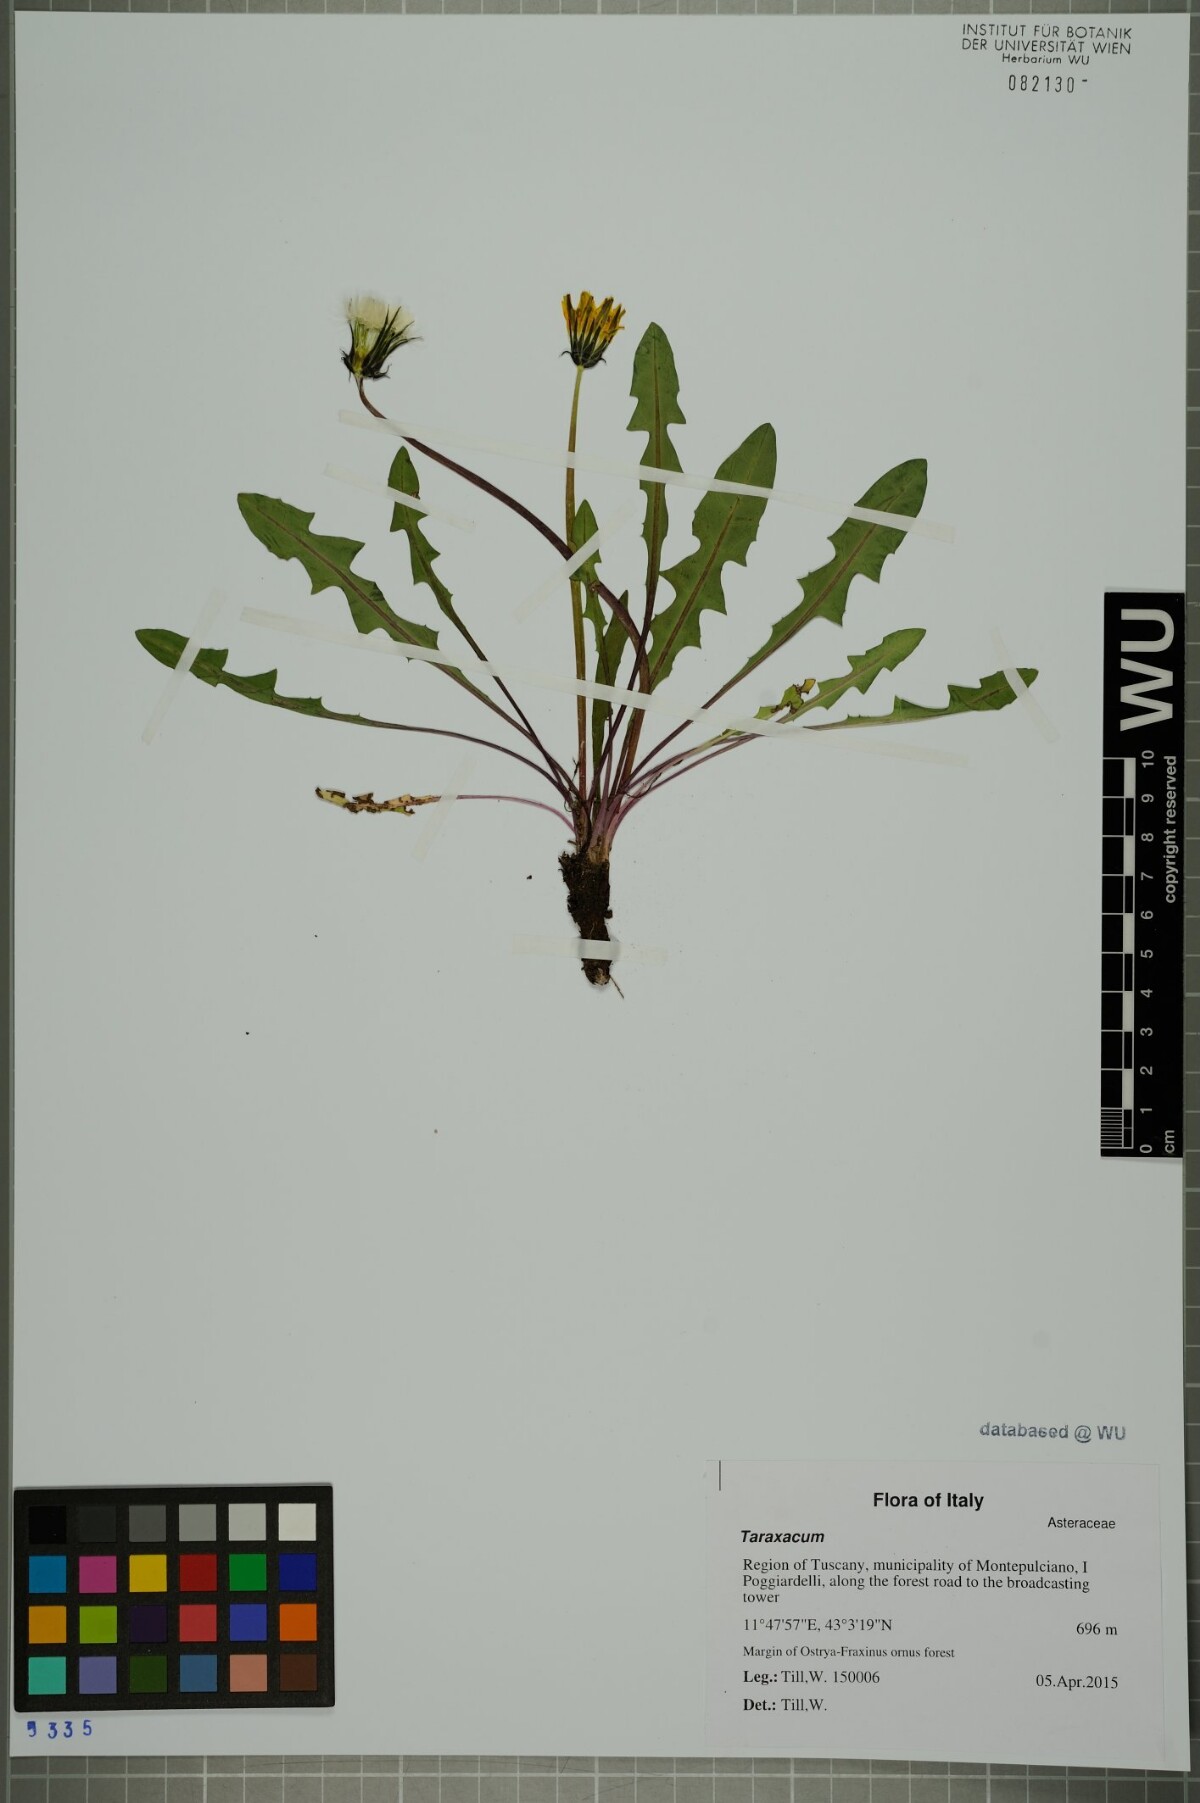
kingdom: Plantae
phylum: Tracheophyta
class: Magnoliopsida
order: Asterales
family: Asteraceae
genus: Taraxacum
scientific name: Taraxacum
